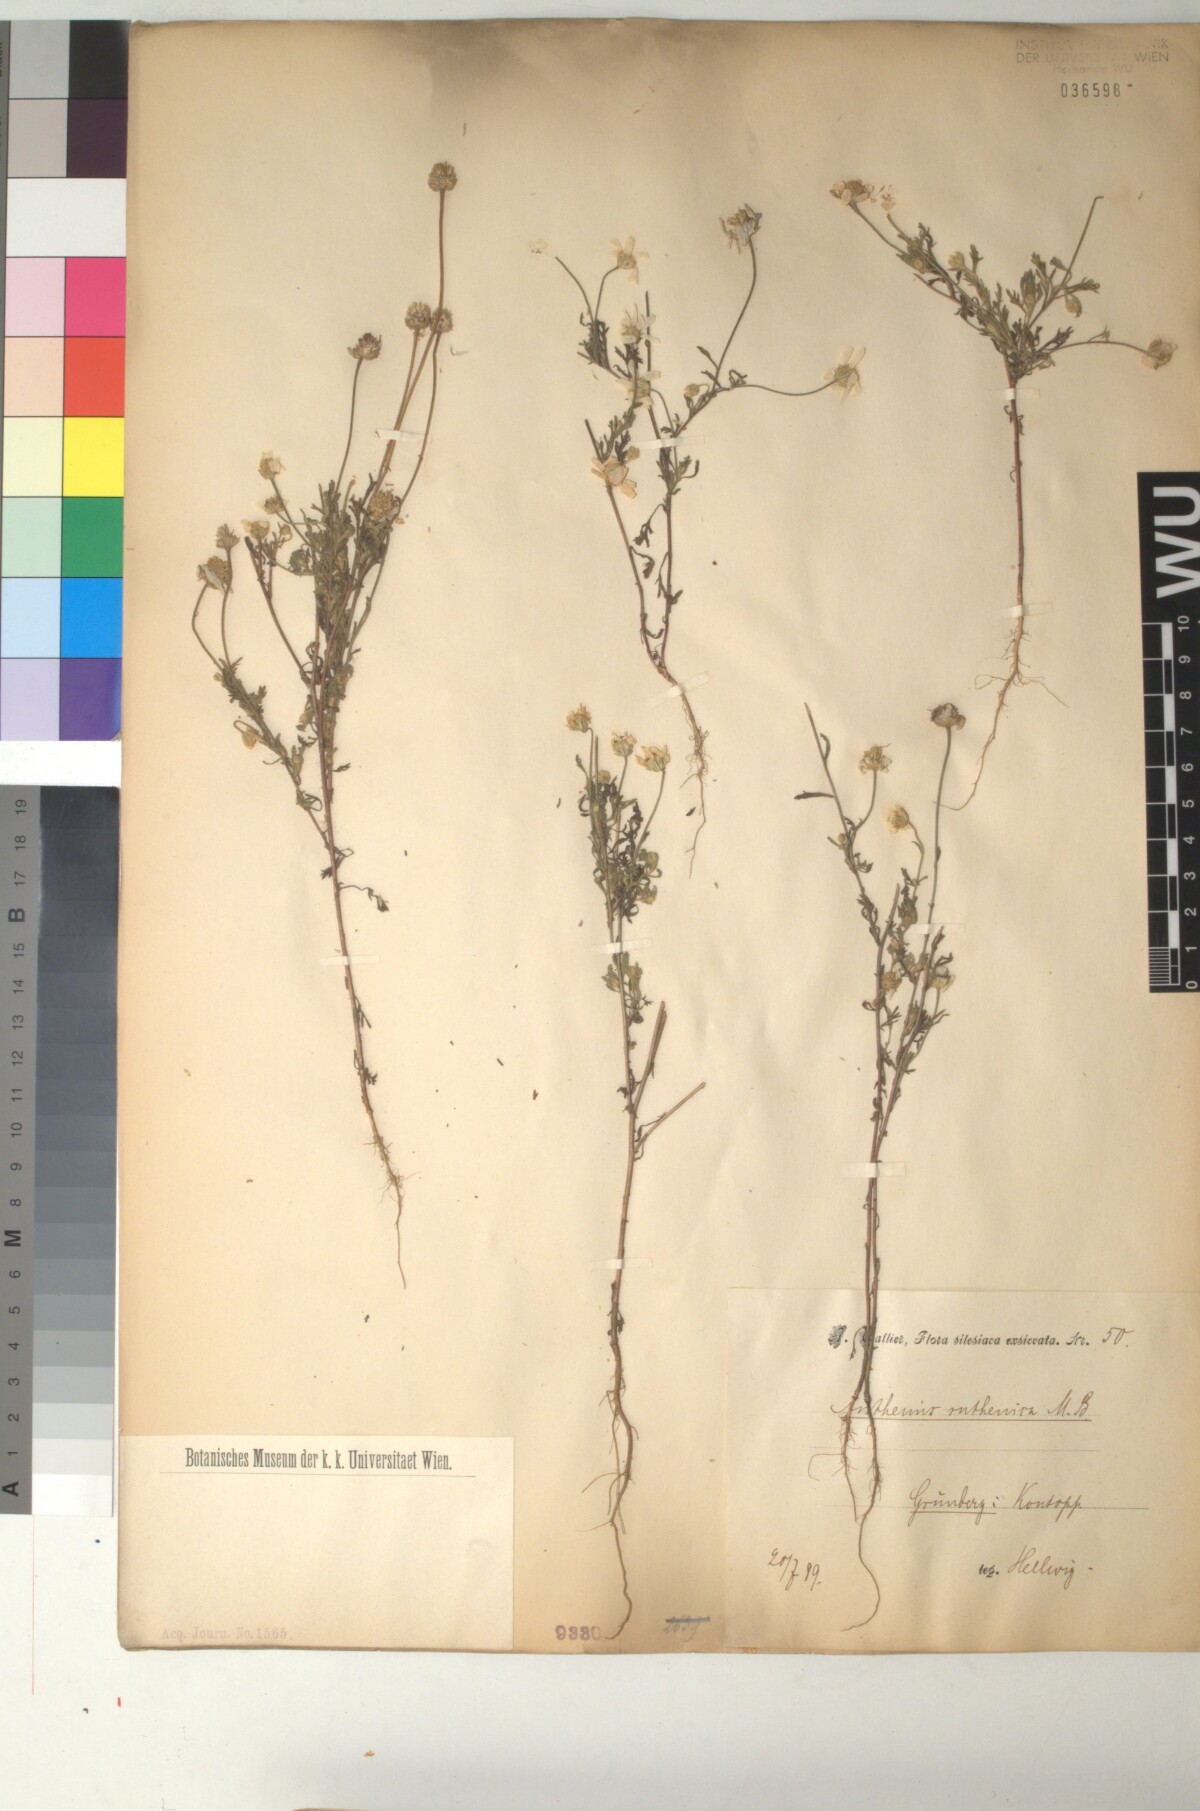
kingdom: Plantae
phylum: Tracheophyta
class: Magnoliopsida
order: Asterales
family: Asteraceae
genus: Anthemis
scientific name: Anthemis ruthenica
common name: Eastern chamomile
